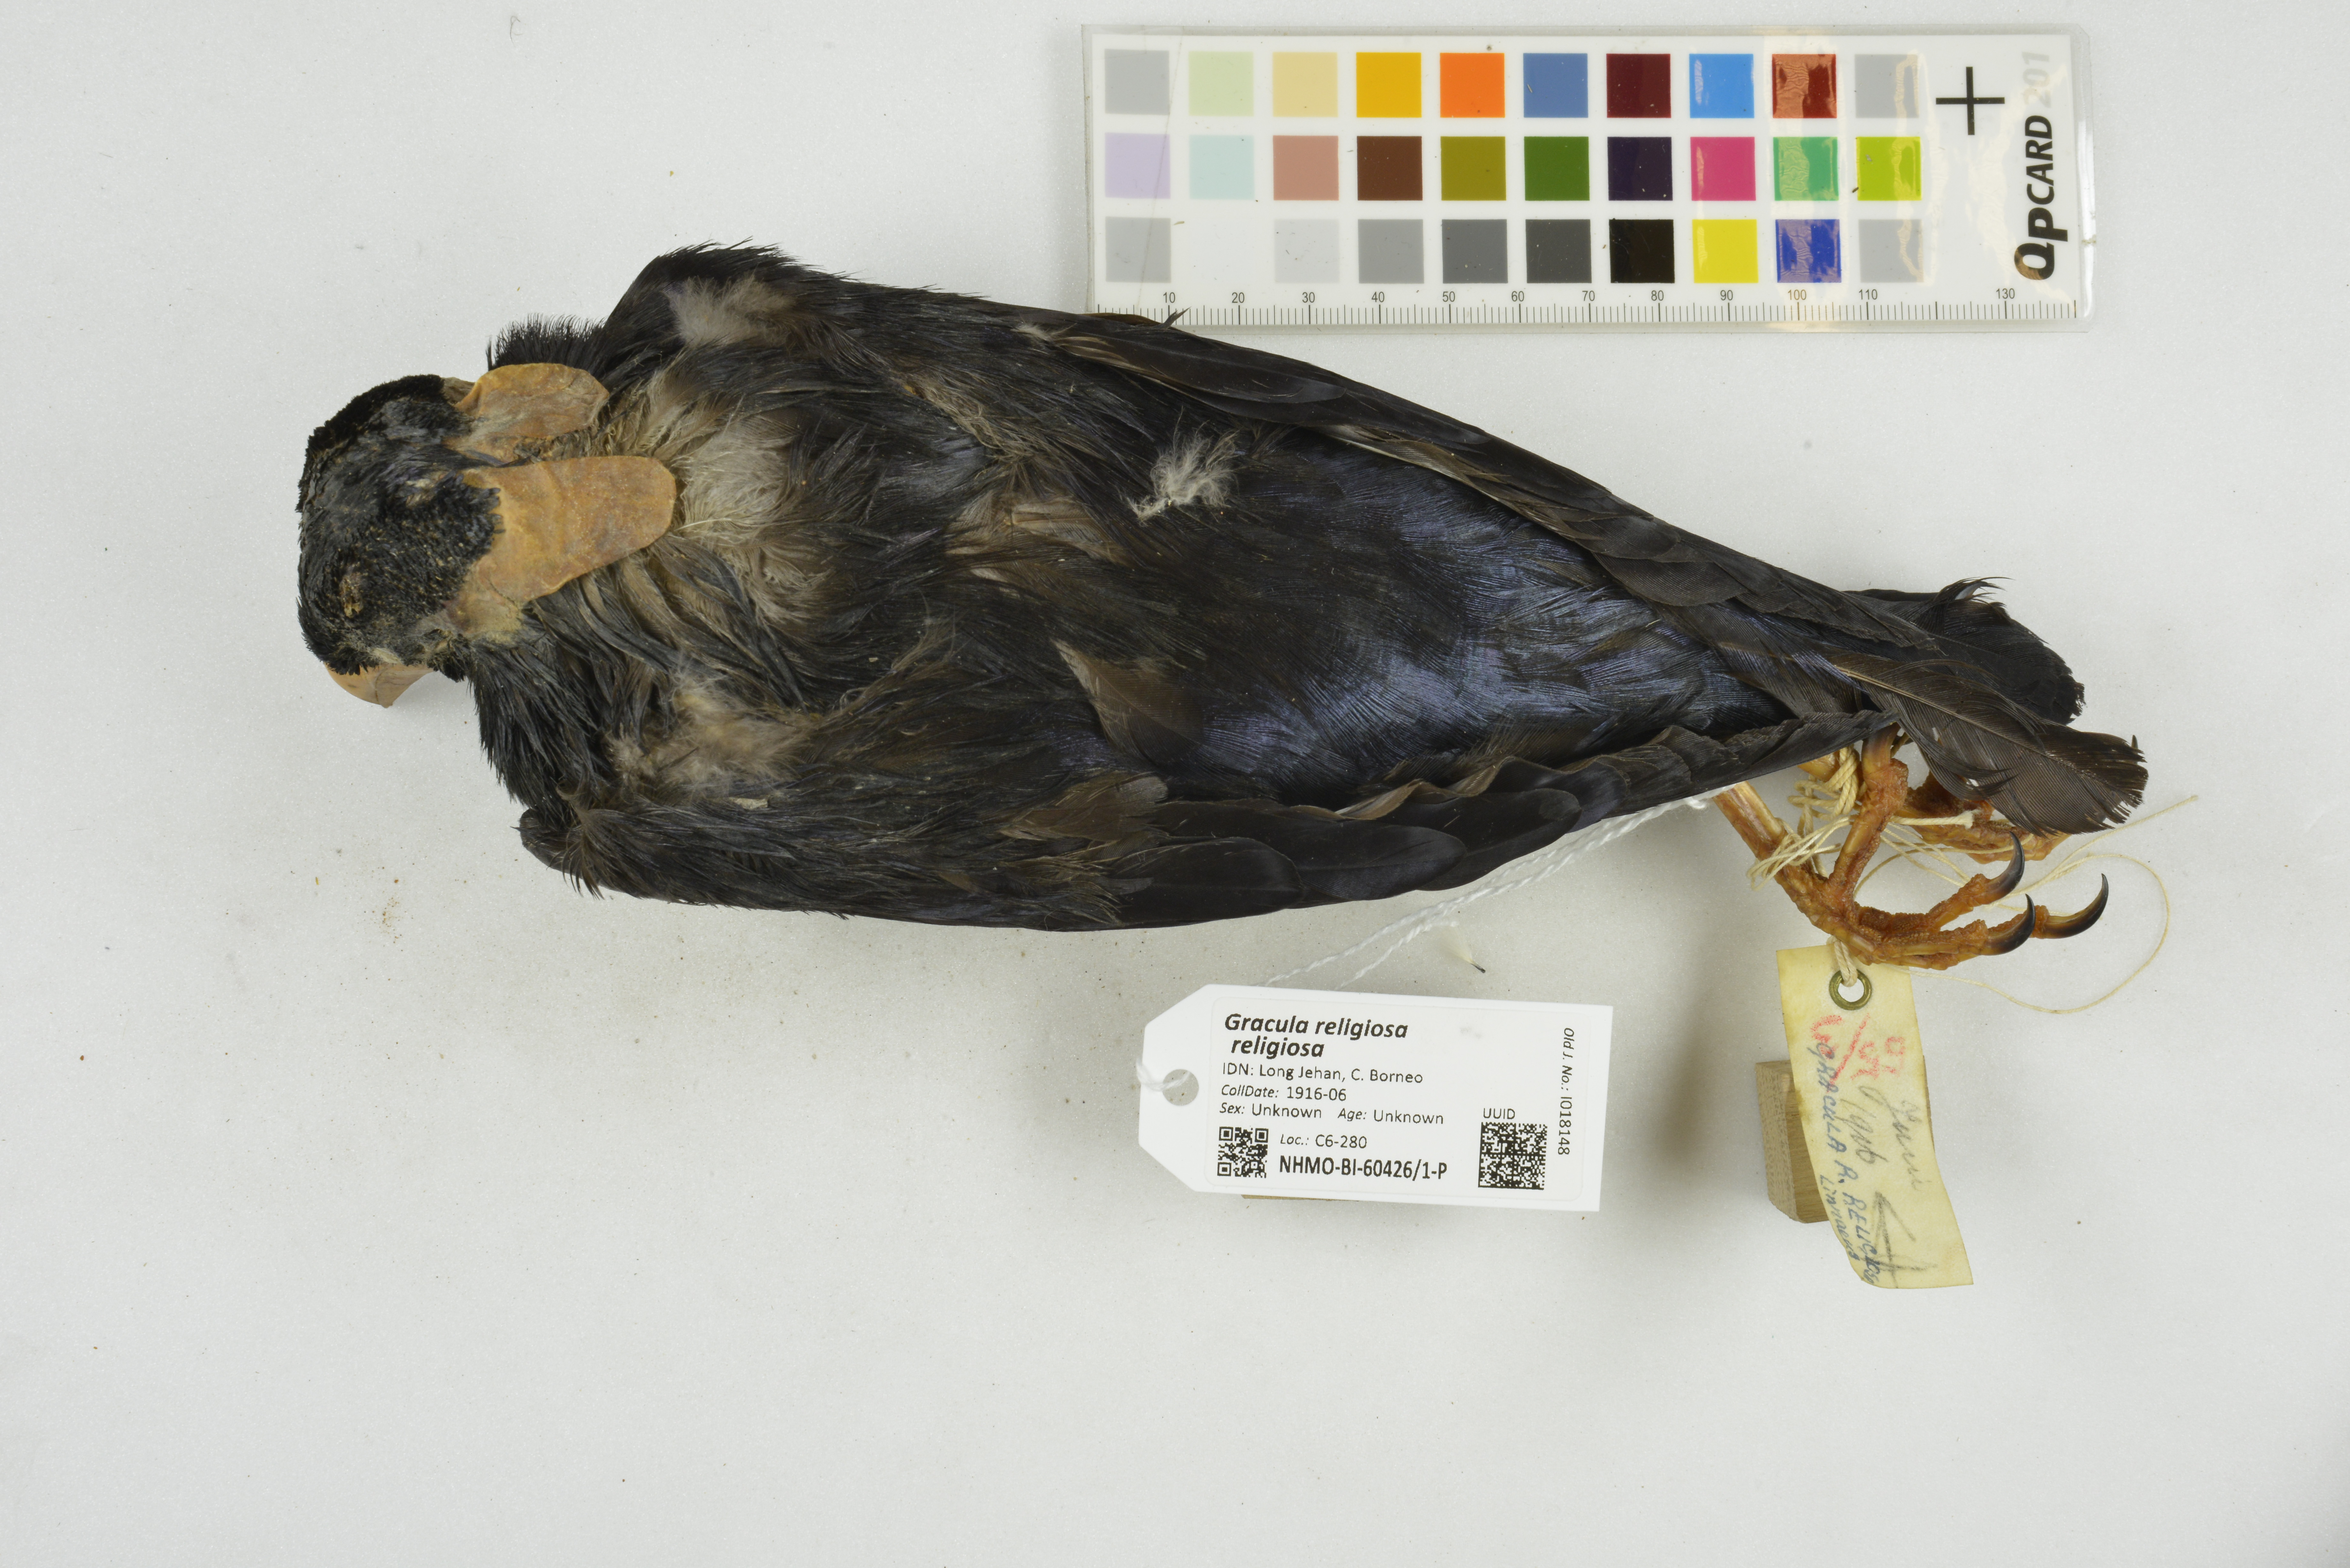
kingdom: Animalia
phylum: Chordata
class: Aves
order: Passeriformes
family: Sturnidae
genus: Gracula
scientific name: Gracula religiosa
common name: Common hill myna
